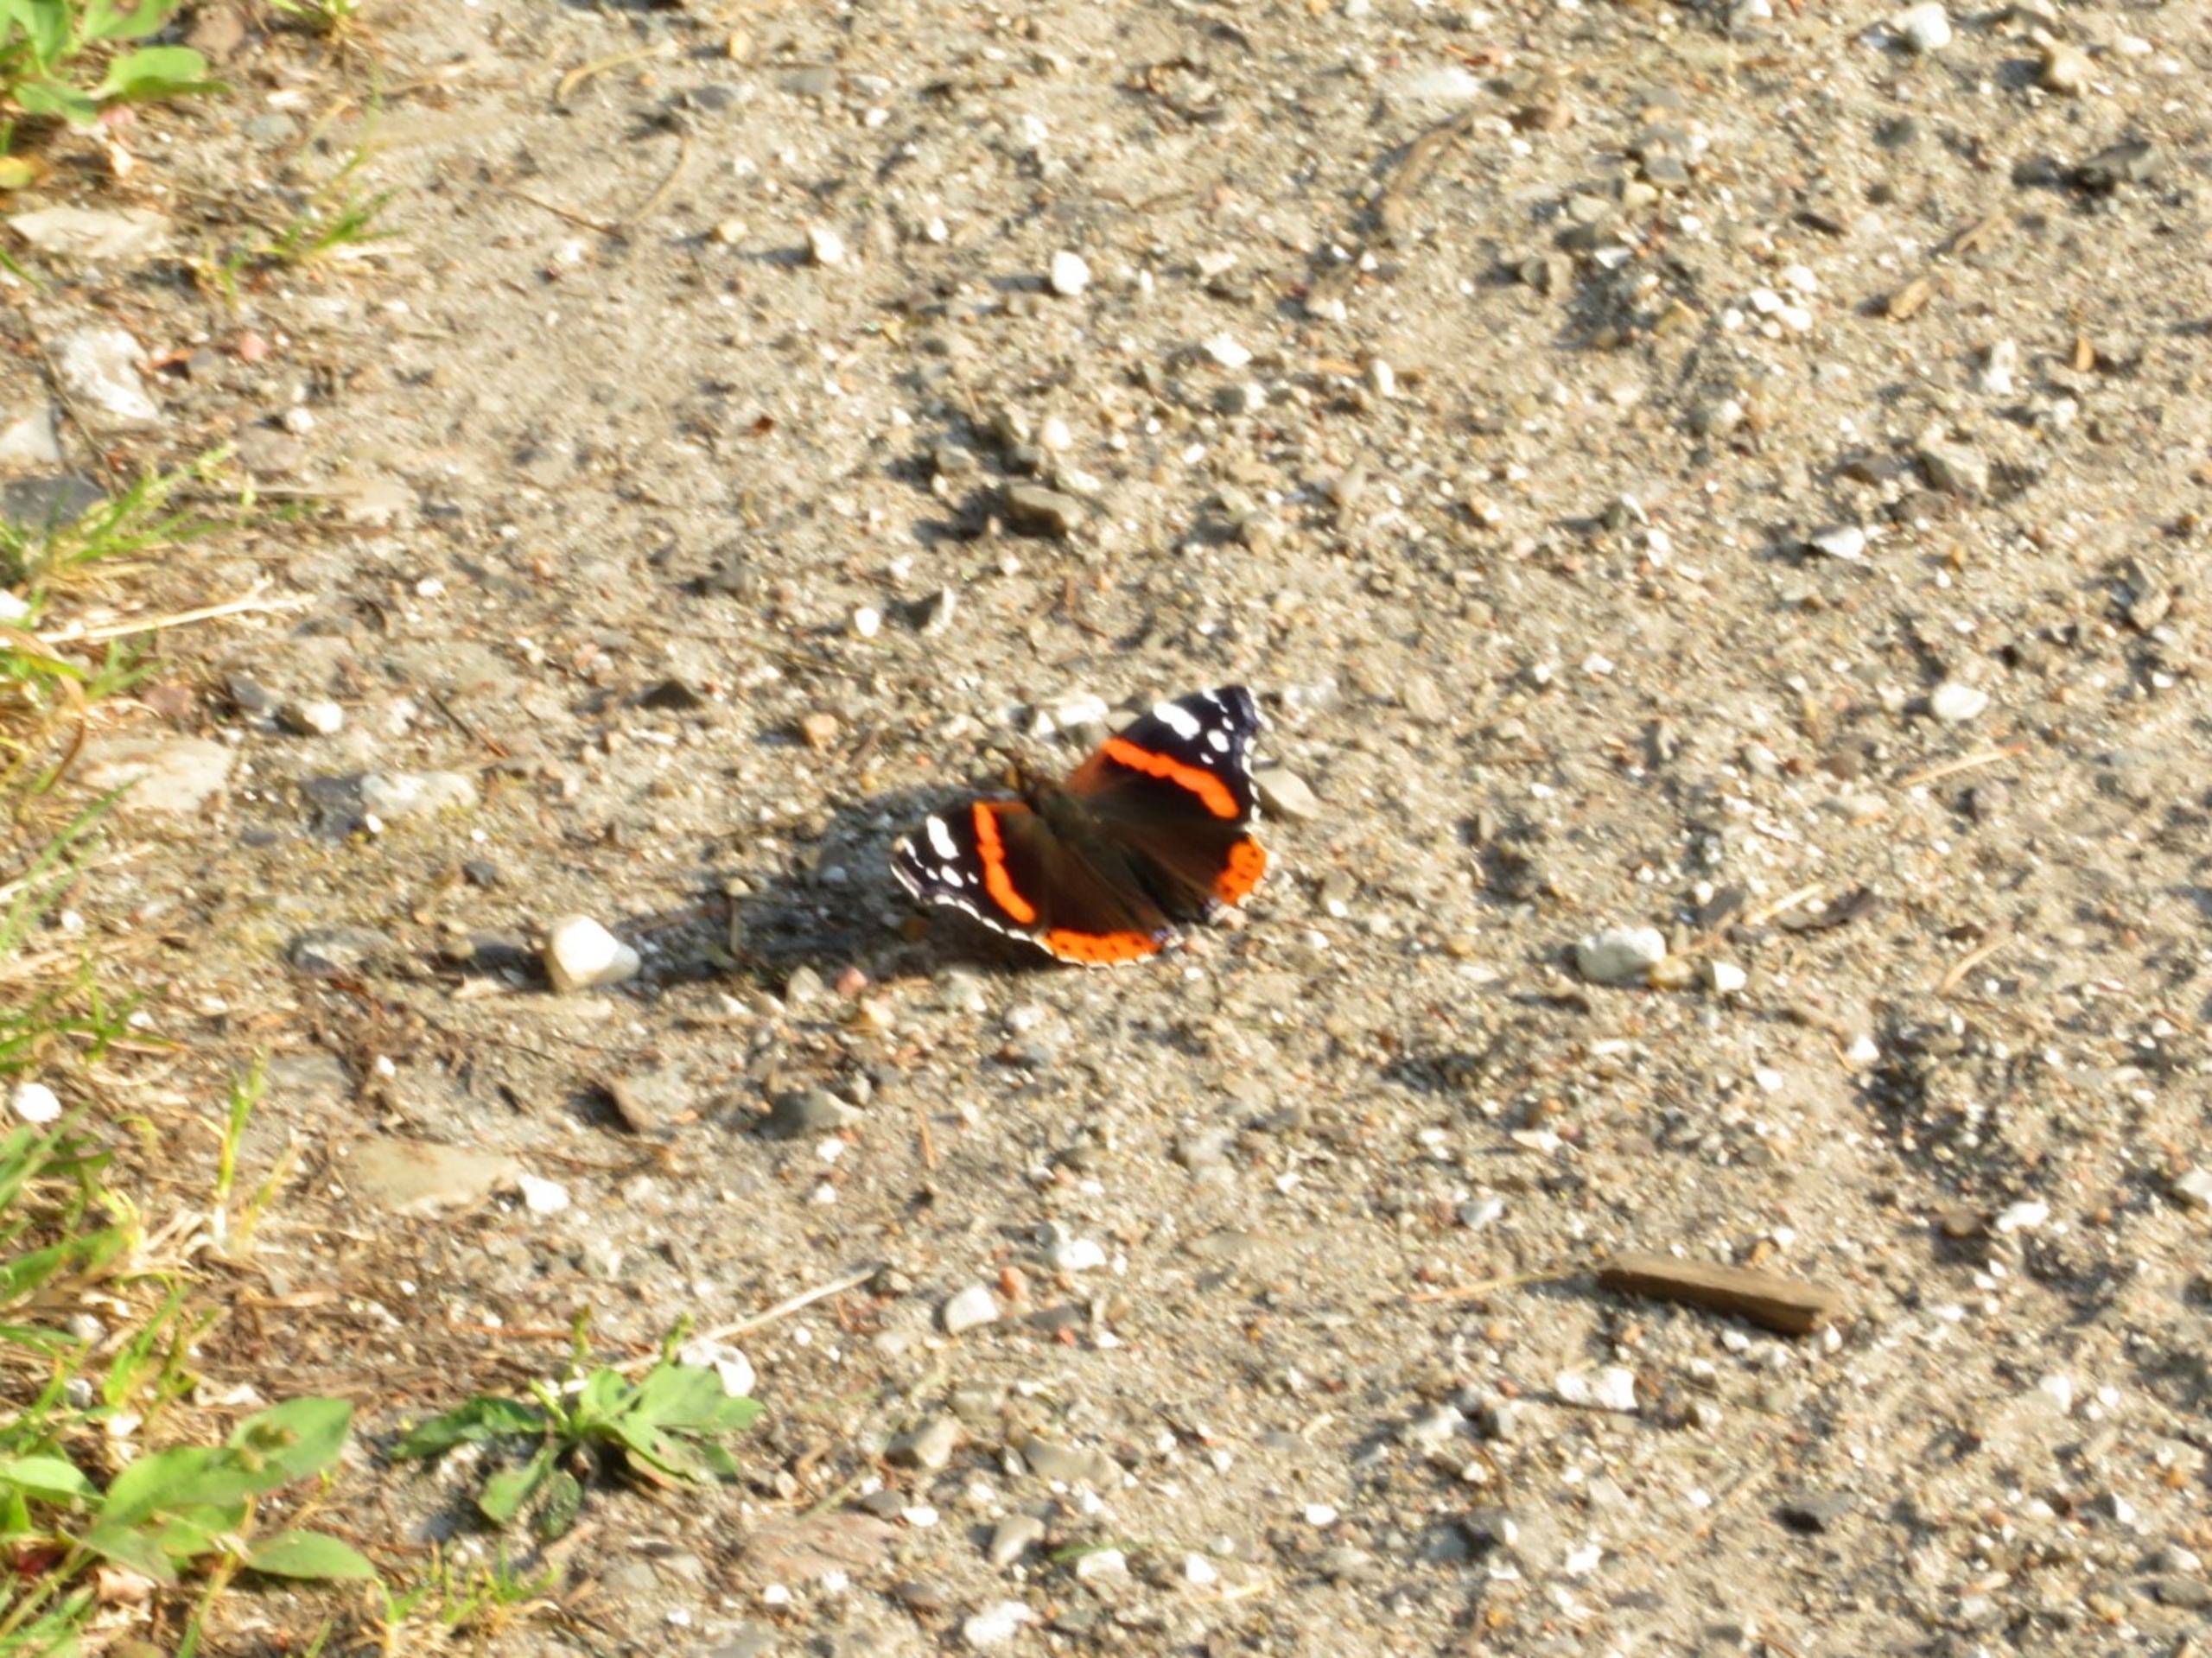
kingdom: Animalia
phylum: Arthropoda
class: Insecta
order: Lepidoptera
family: Nymphalidae
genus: Vanessa
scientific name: Vanessa atalanta
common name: Admiral
